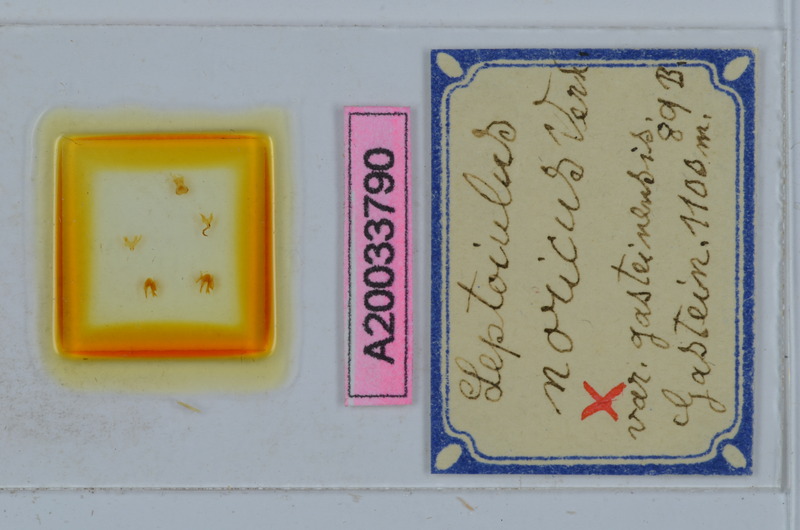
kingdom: Animalia
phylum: Arthropoda
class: Diplopoda
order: Julida
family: Julidae
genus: Leptoiulus
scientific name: Leptoiulus noricus
